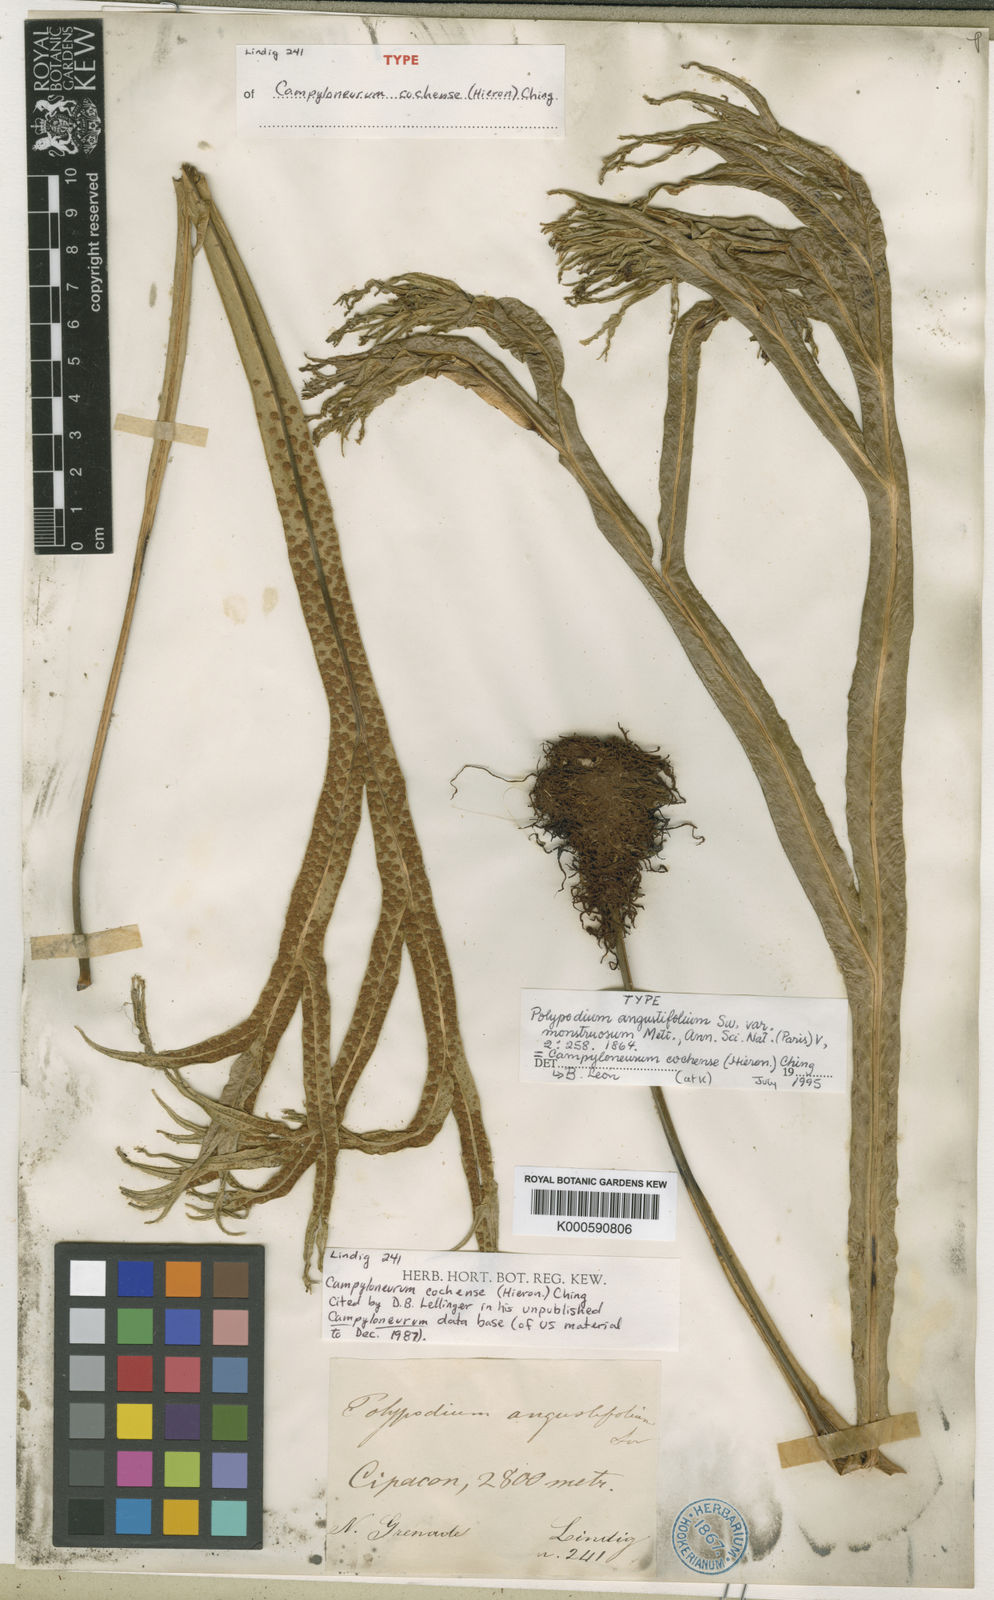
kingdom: Plantae
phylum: Tracheophyta
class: Polypodiopsida
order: Polypodiales
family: Polypodiaceae
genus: Campyloneurum
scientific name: Campyloneurum cochense
